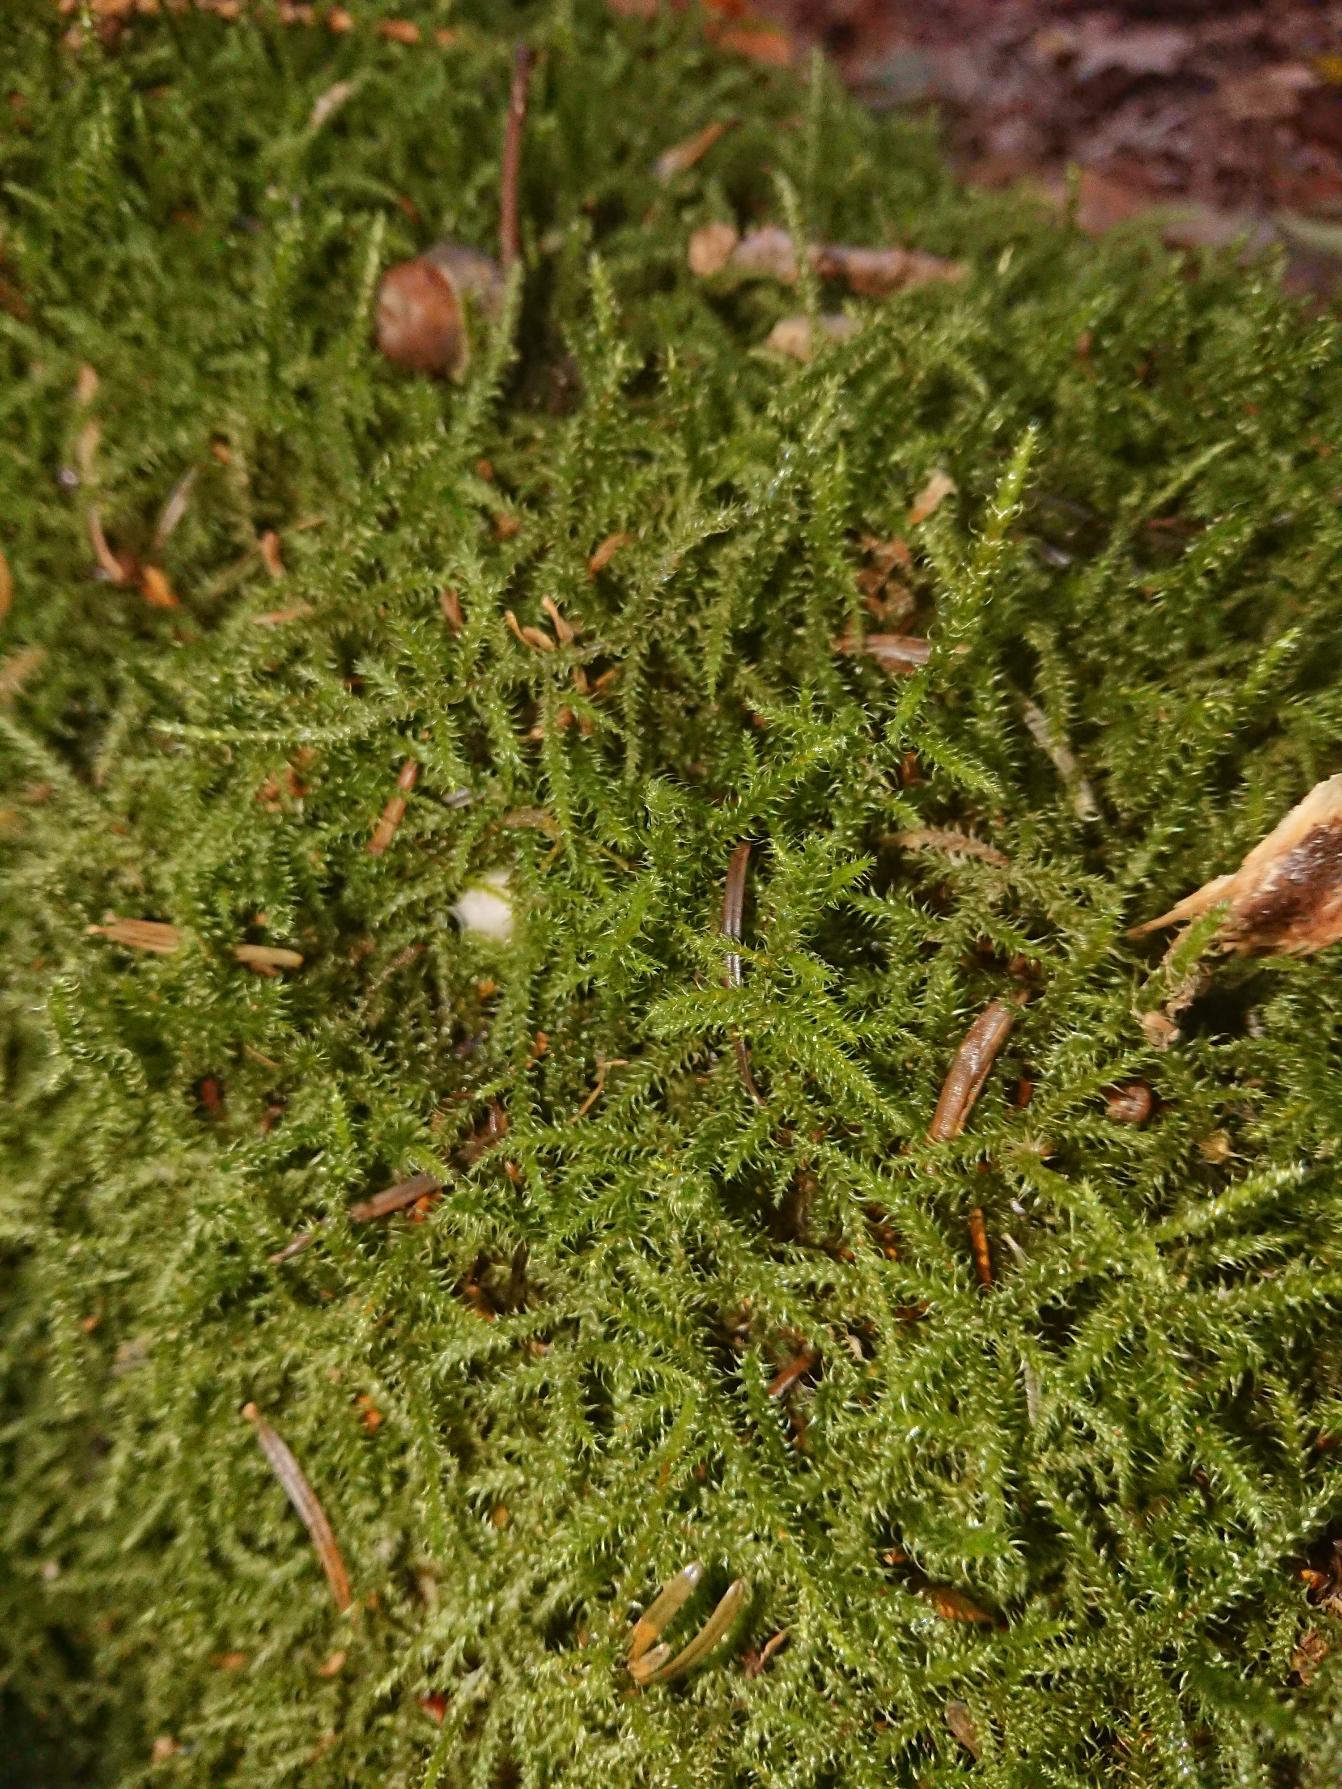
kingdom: Plantae
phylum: Bryophyta
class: Bryopsida
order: Hypnales
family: Hylocomiaceae
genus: Rhytidiadelphus
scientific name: Rhytidiadelphus loreus
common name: Ulvefod-kransemos
